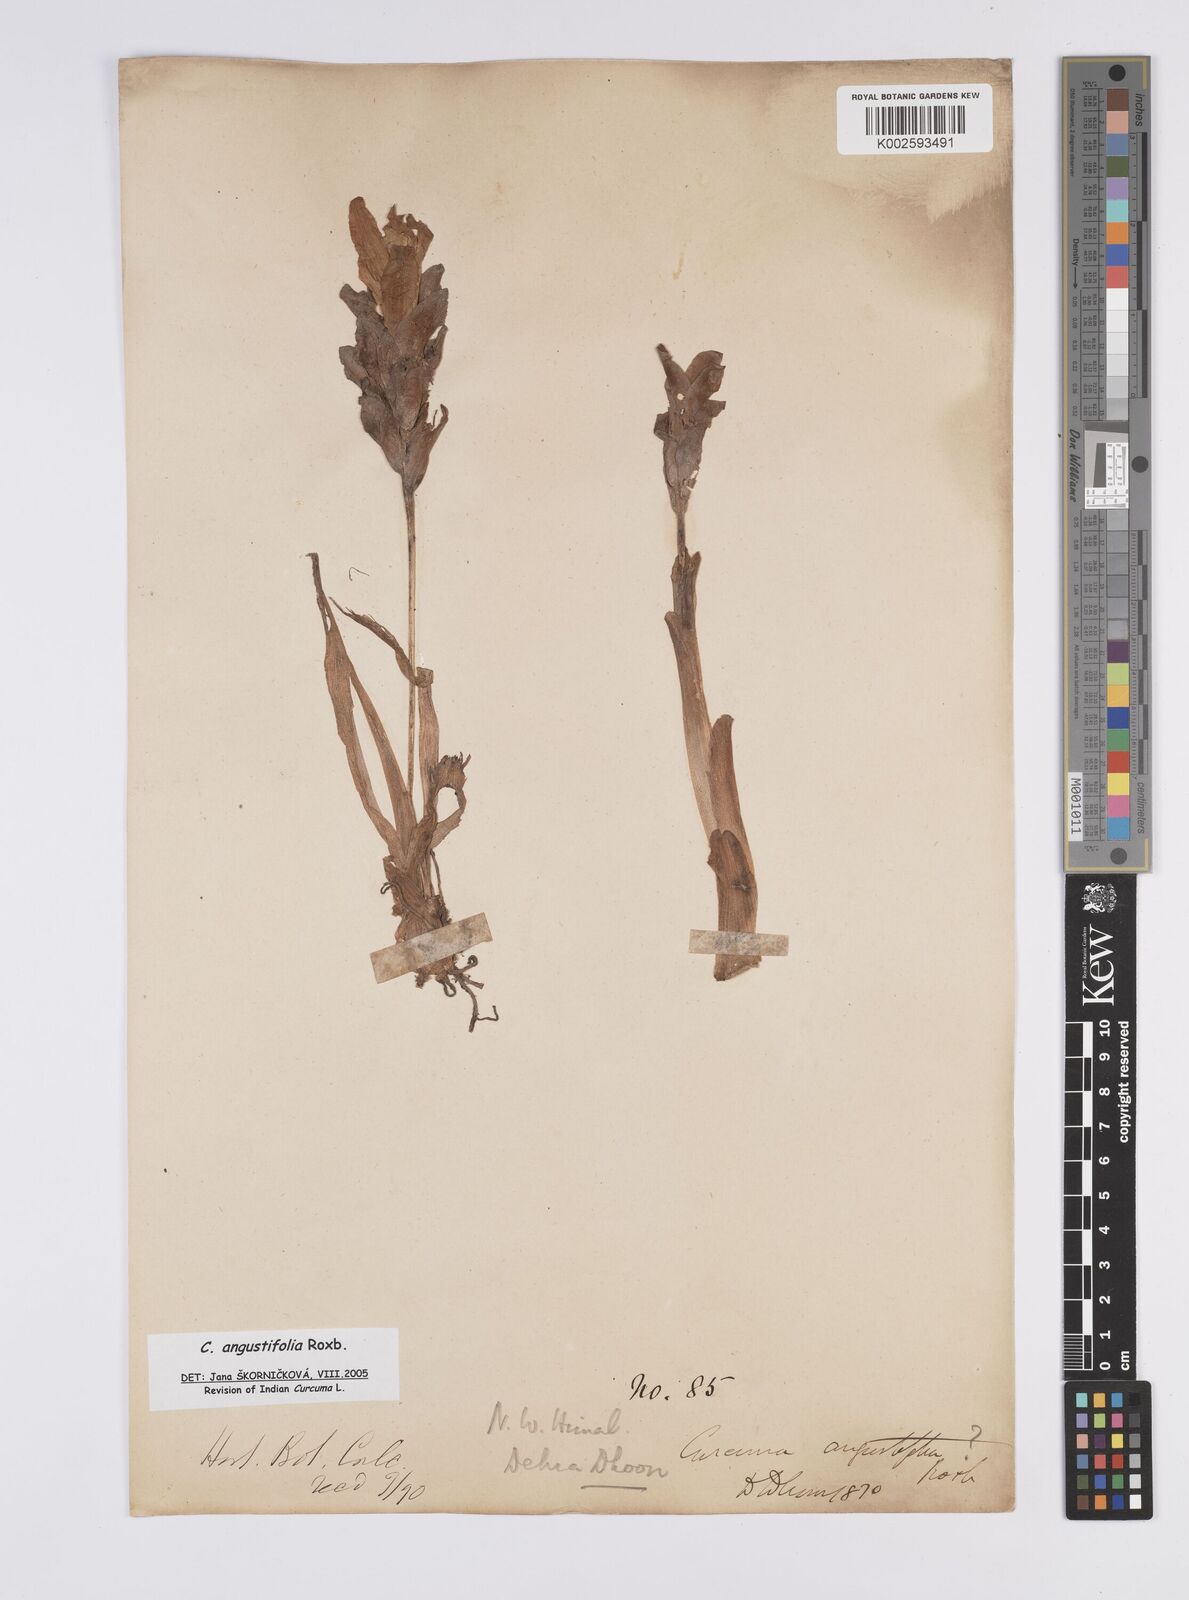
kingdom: Plantae
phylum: Tracheophyta
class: Liliopsida
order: Zingiberales
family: Zingiberaceae
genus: Curcuma
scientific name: Curcuma angustifolia
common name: East indian arrowroot
